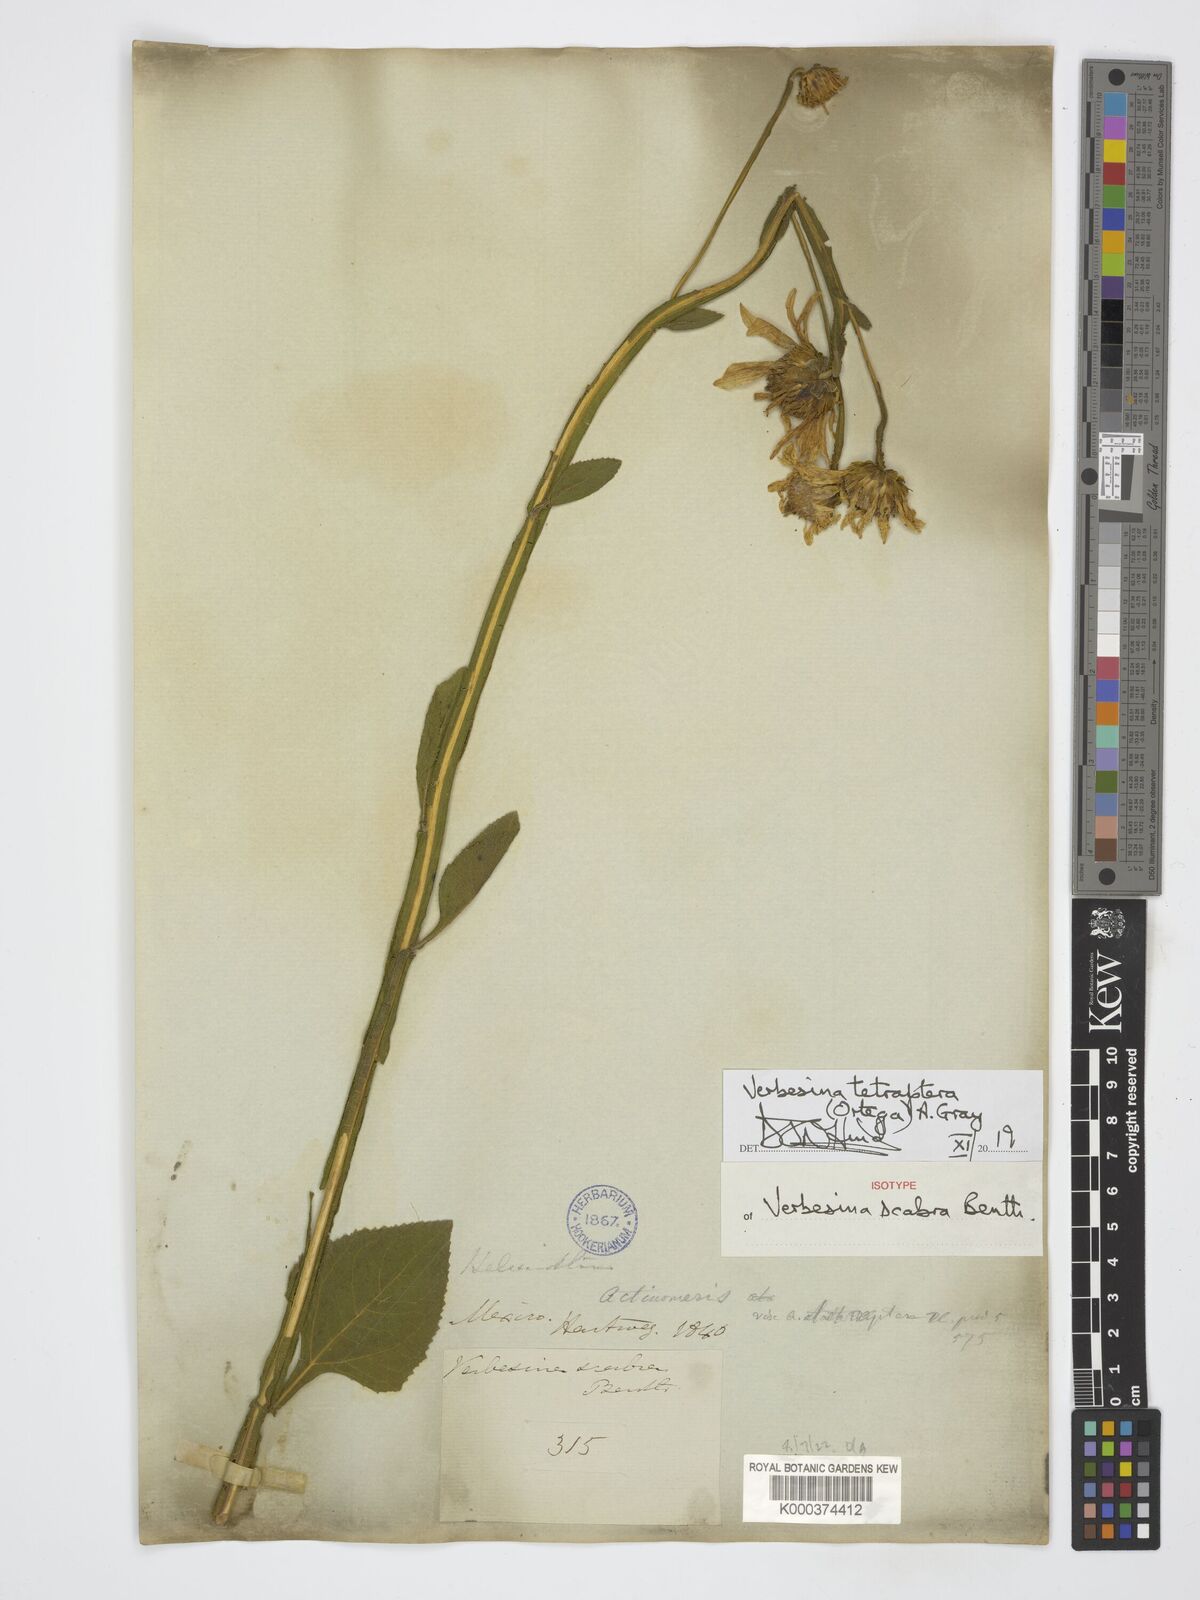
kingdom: Plantae
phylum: Tracheophyta
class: Magnoliopsida
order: Asterales
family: Asteraceae
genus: Verbesina
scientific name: Verbesina tetraptera
